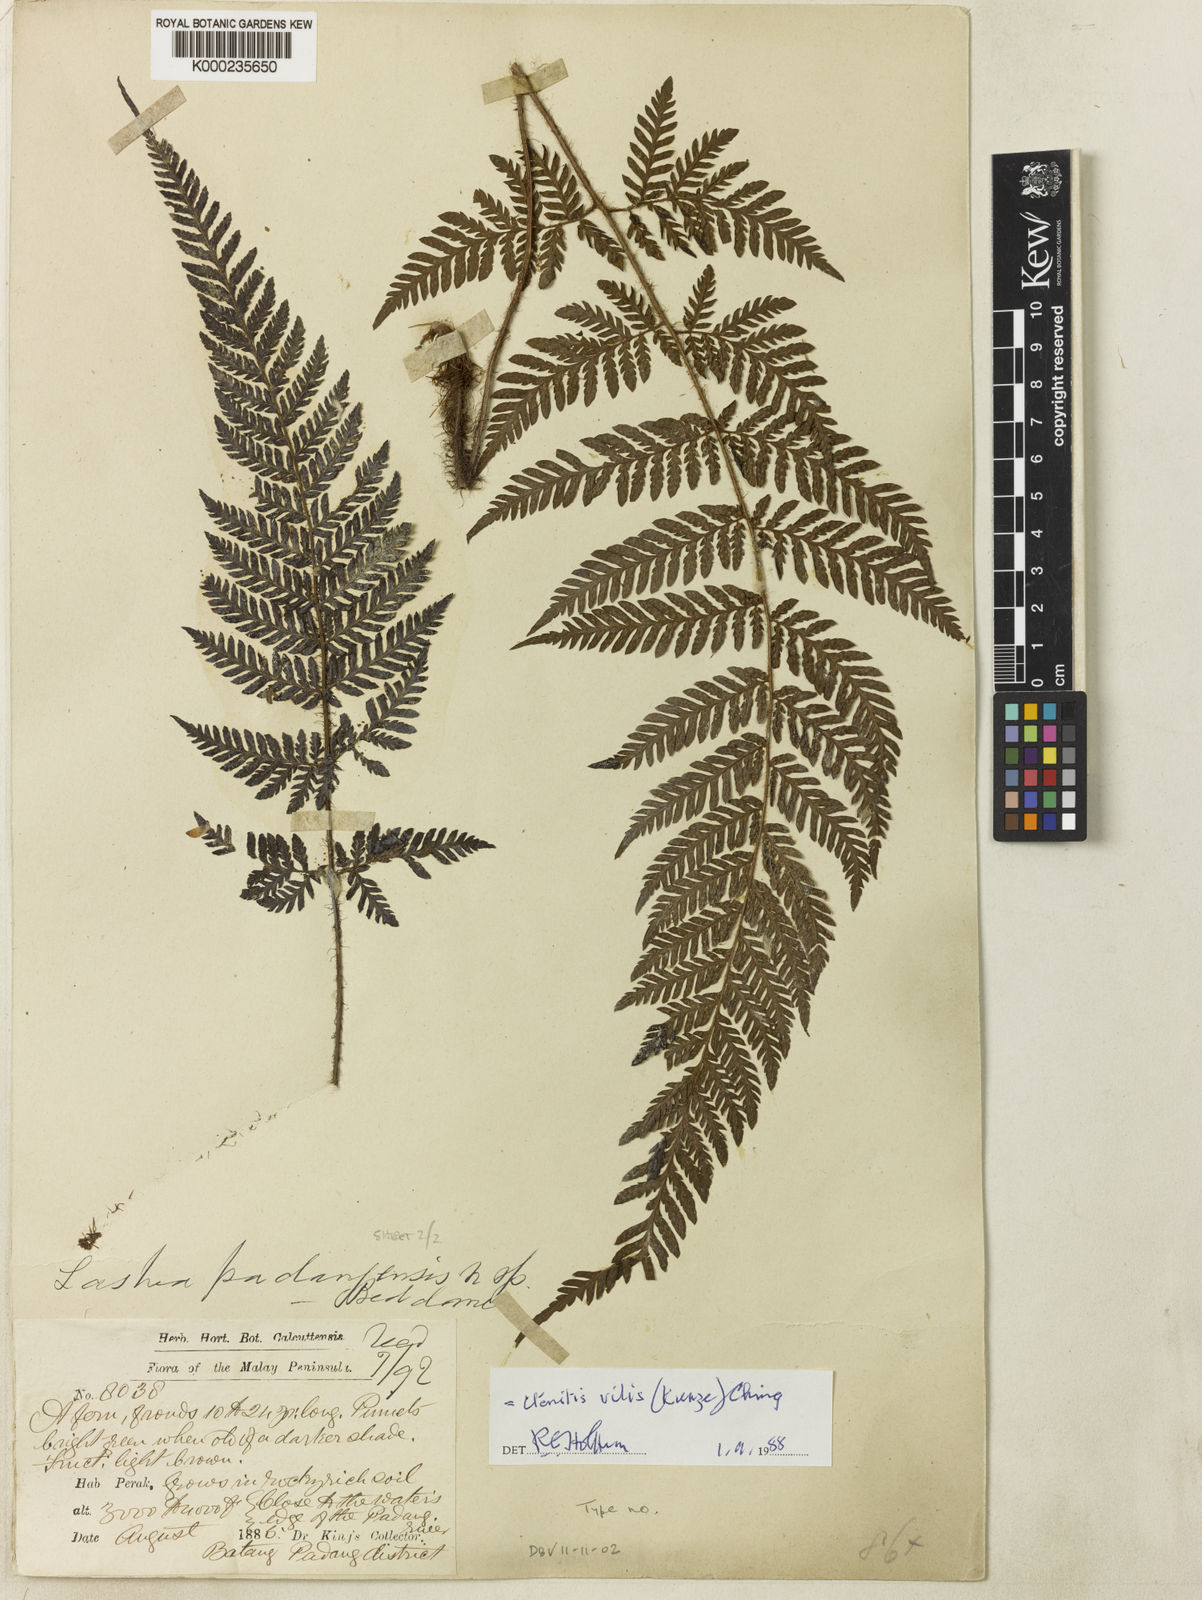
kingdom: Plantae
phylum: Tracheophyta
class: Polypodiopsida
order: Polypodiales
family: Dryopteridaceae
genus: Ctenitis
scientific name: Ctenitis vilis
